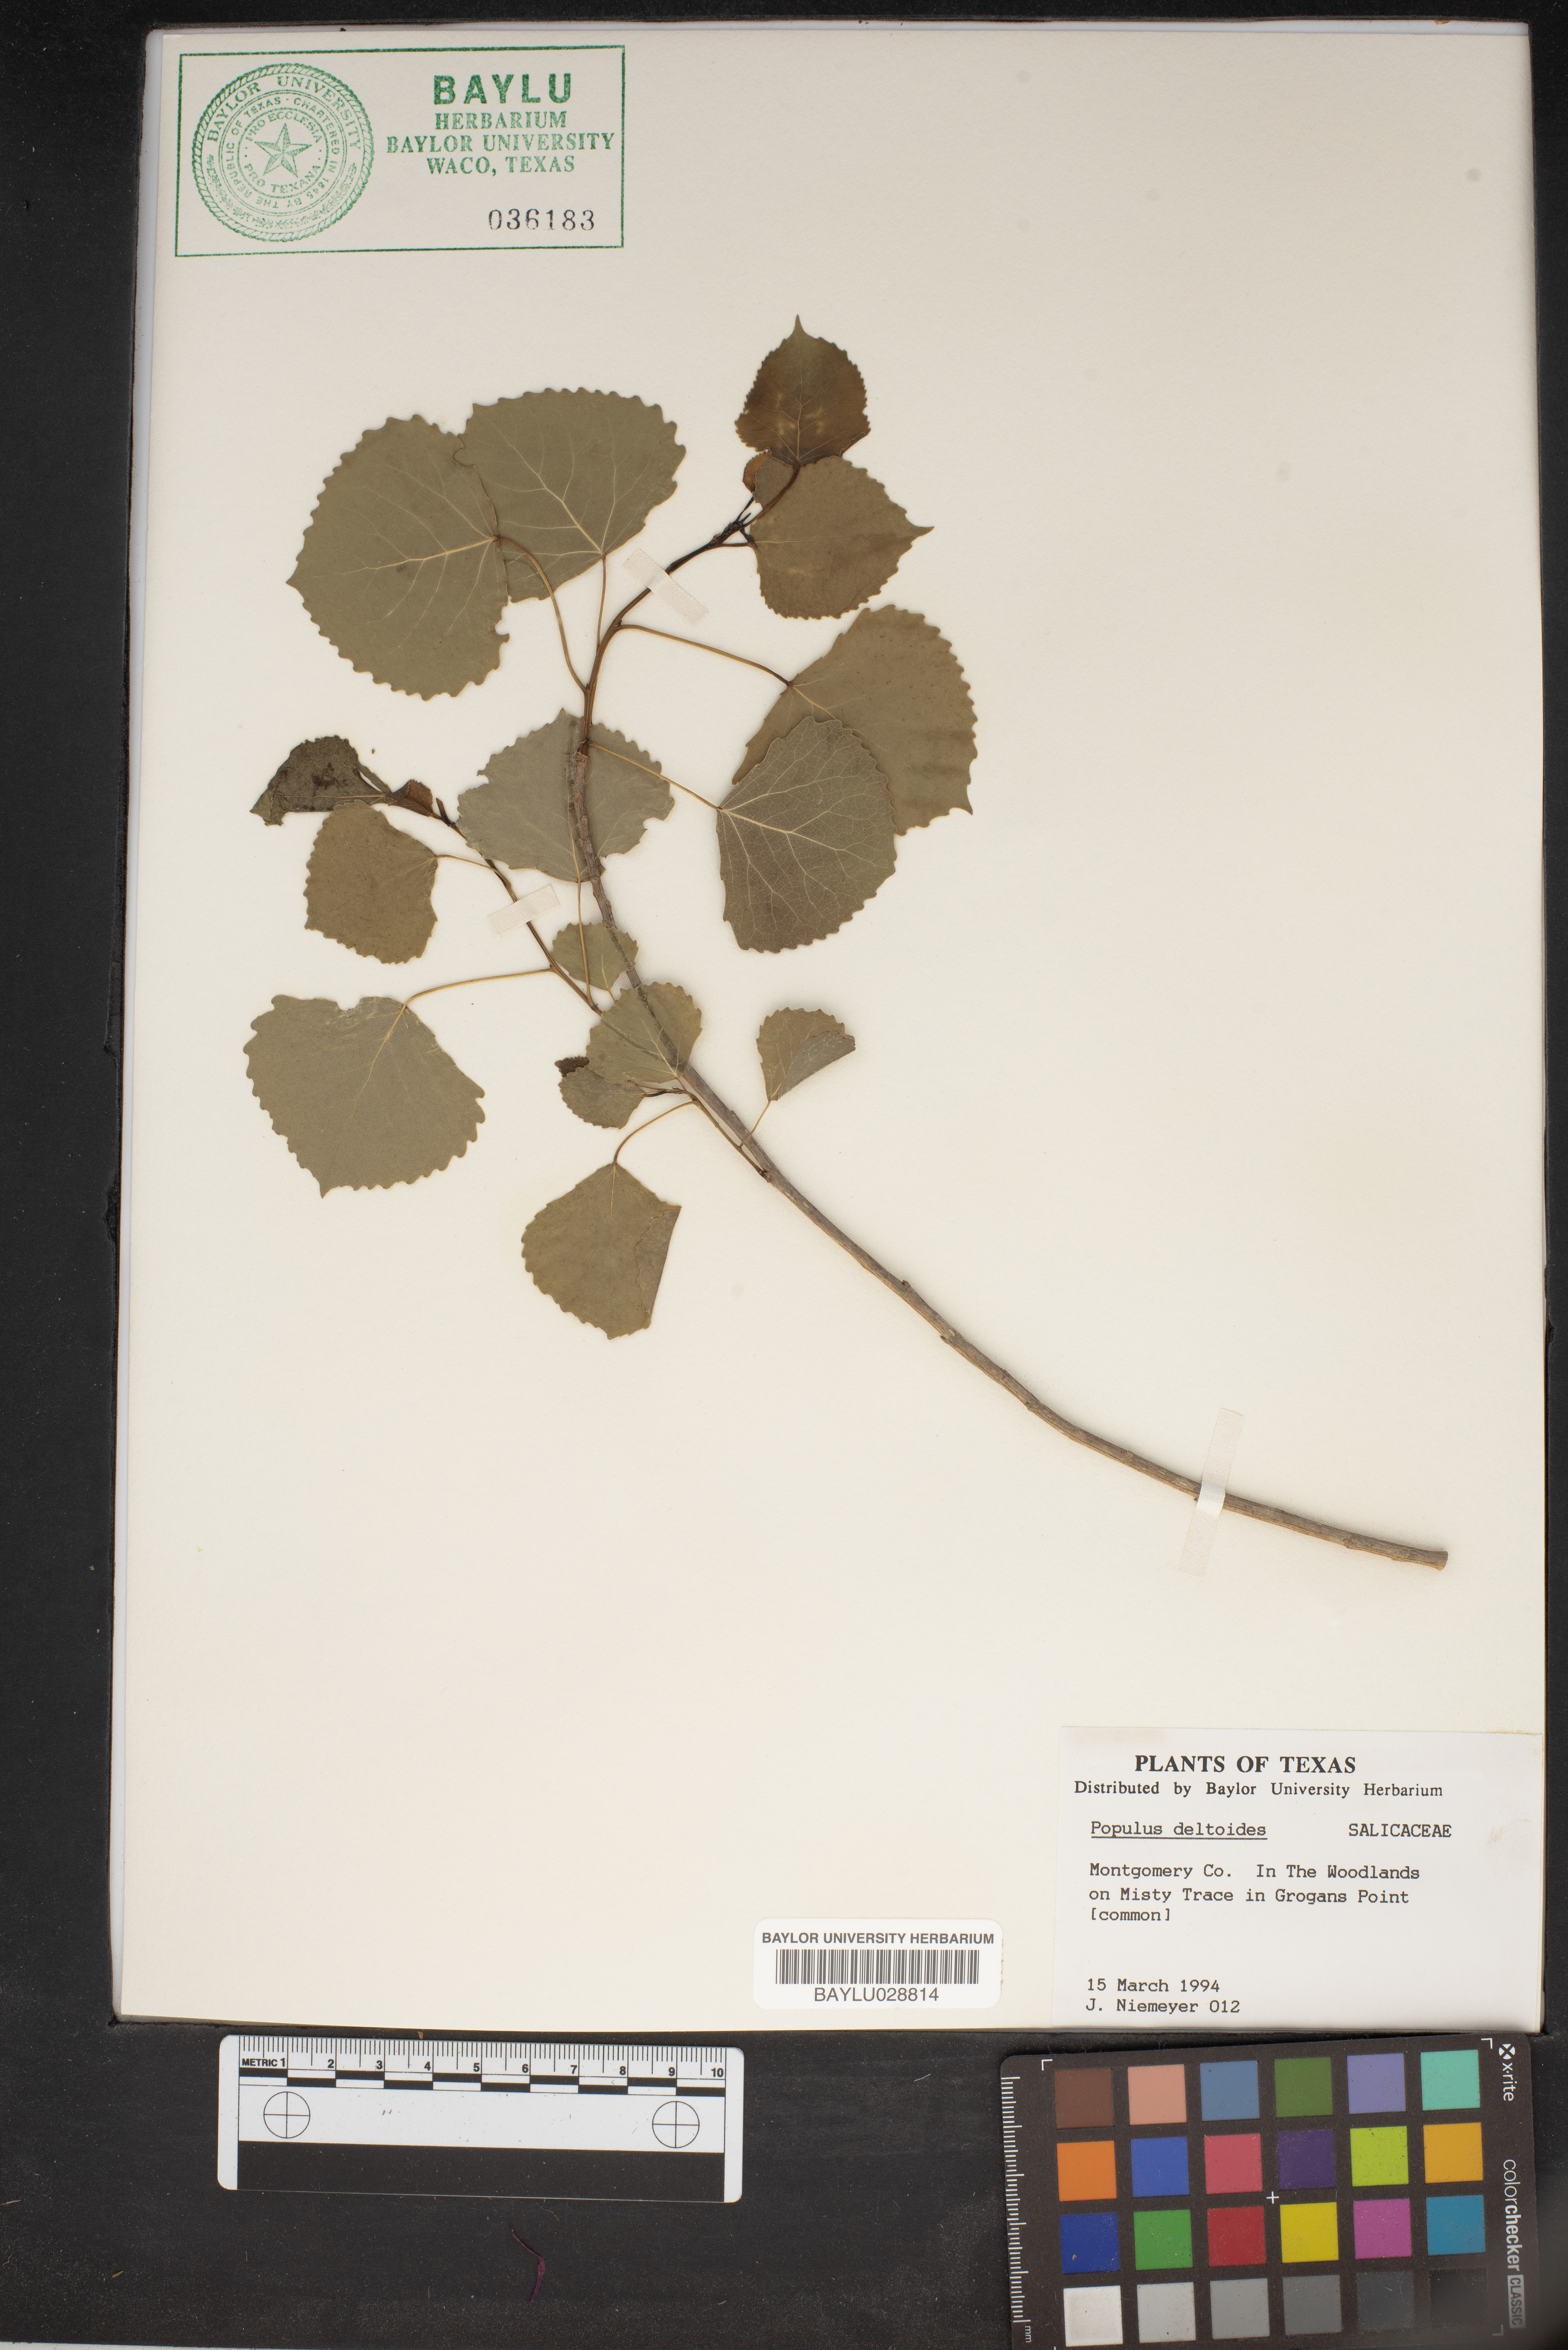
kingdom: Plantae
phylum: Tracheophyta
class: Magnoliopsida
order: Malpighiales
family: Salicaceae
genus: Populus
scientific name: Populus deltoides
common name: Eastern cottonwood
